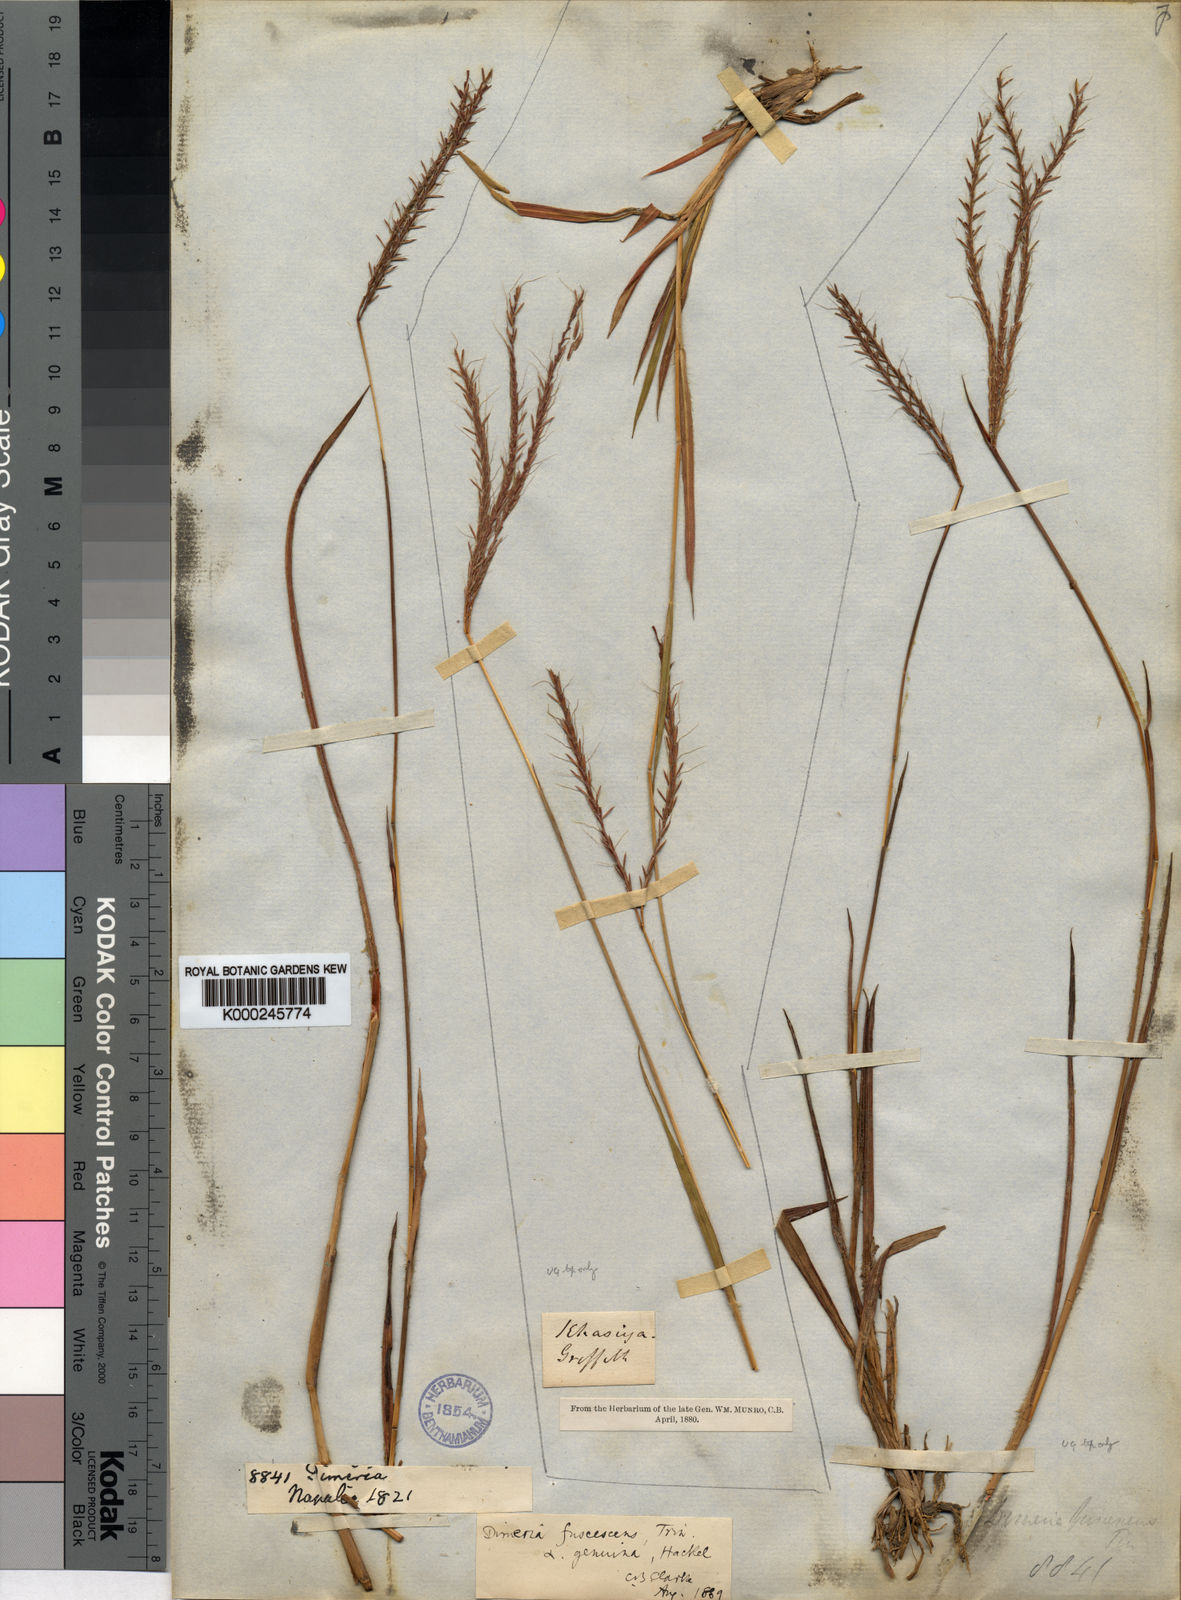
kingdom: Plantae
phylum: Tracheophyta
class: Liliopsida
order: Poales
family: Poaceae
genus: Dimeria
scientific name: Dimeria chloridiformis
